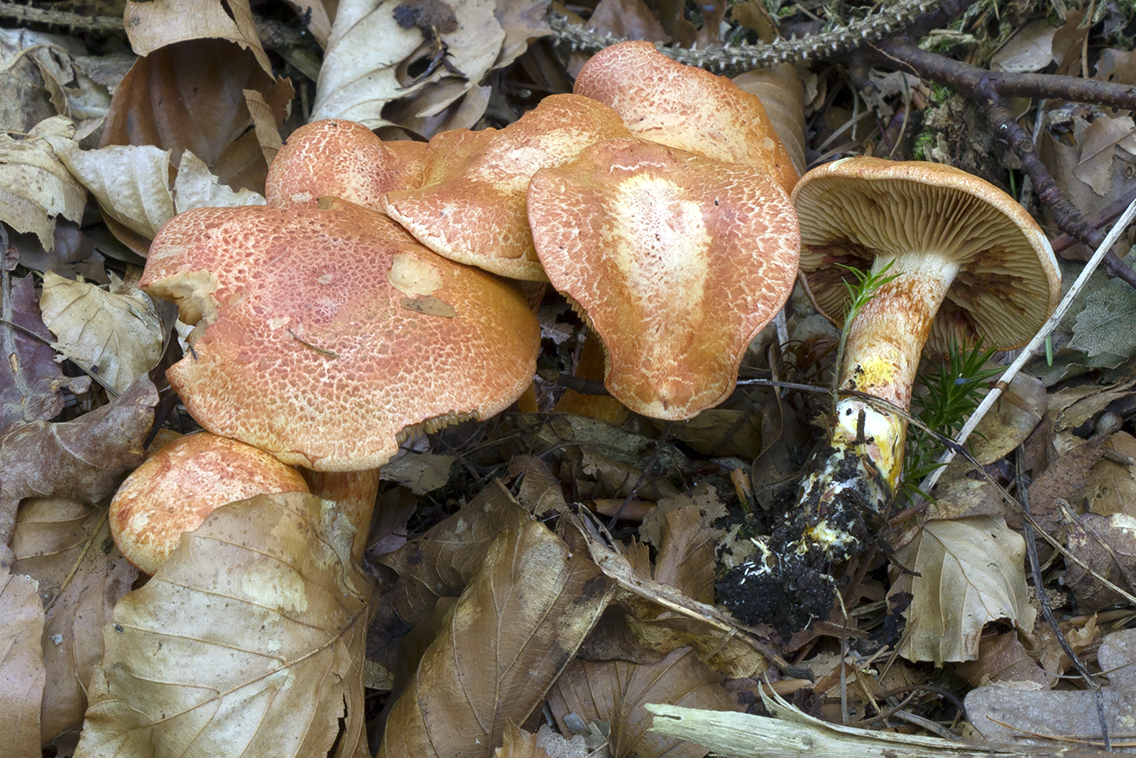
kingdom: Fungi
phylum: Basidiomycota
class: Agaricomycetes
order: Agaricales
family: Cortinariaceae
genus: Cortinarius
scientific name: Cortinarius bolaris
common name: cinnoberskællet slørhat
